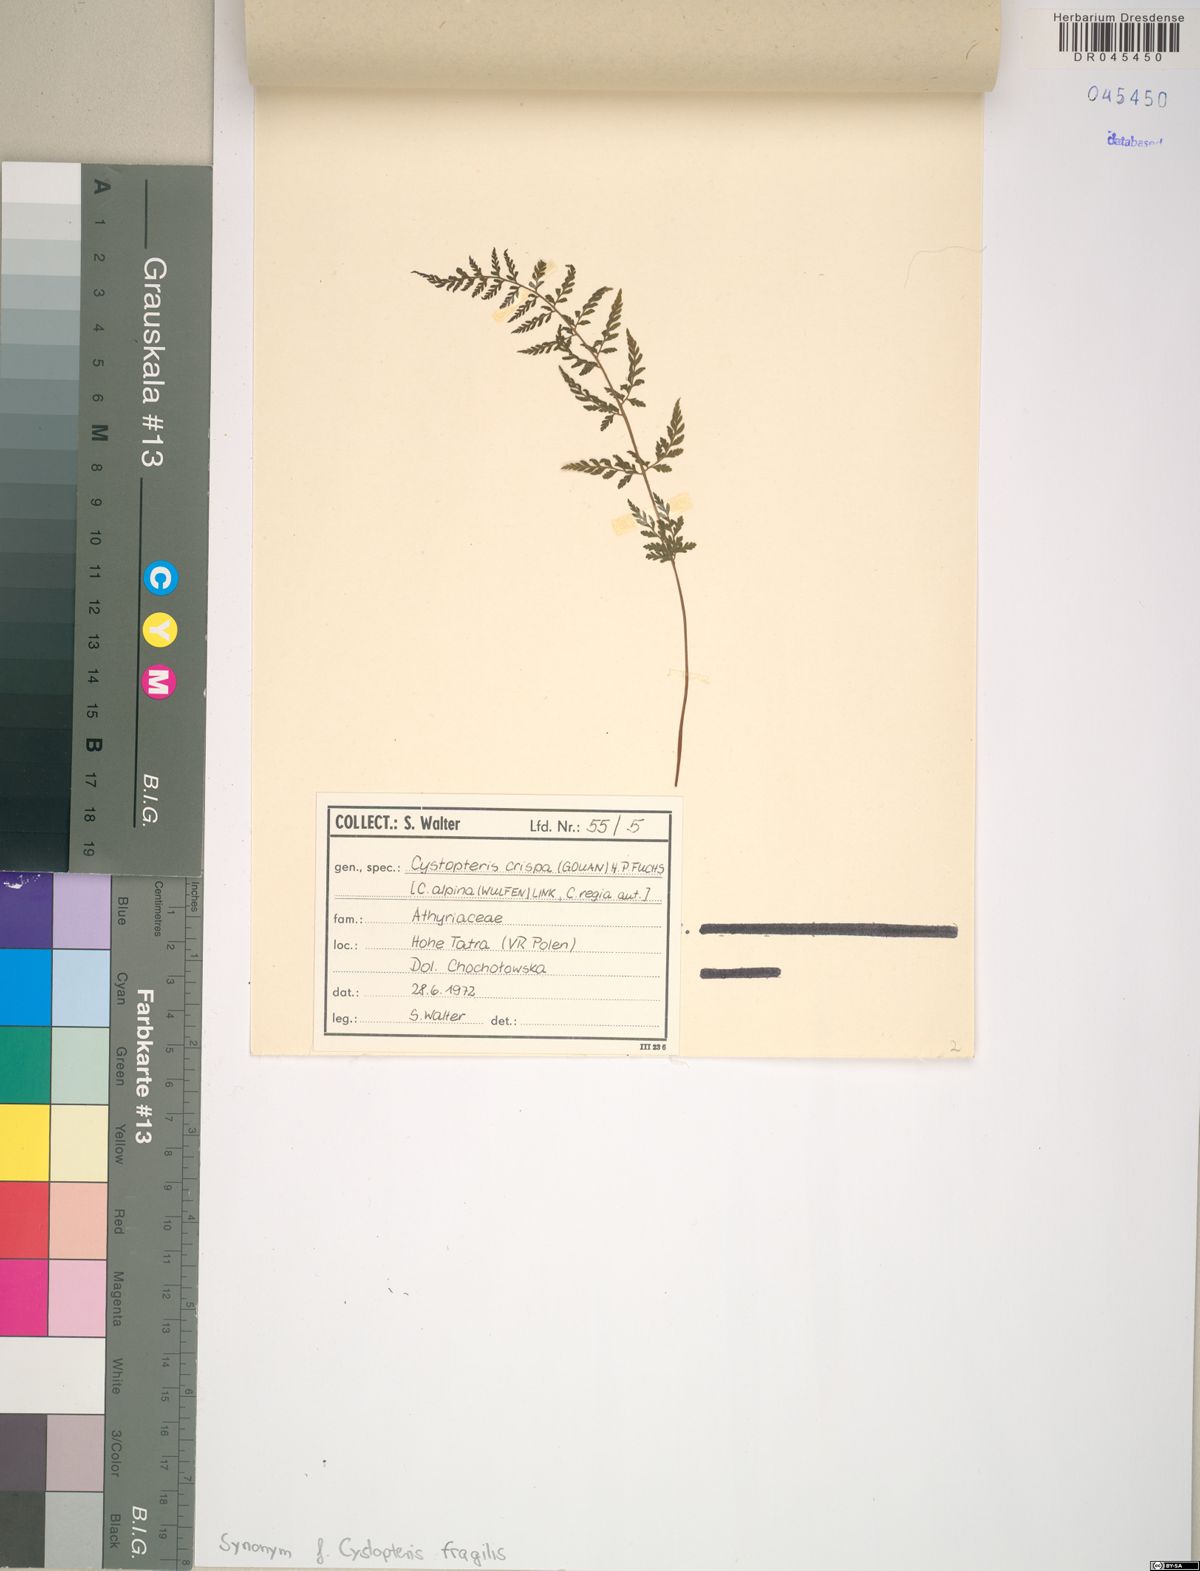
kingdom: Plantae
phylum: Tracheophyta
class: Polypodiopsida
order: Polypodiales
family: Cystopteridaceae
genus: Cystopteris
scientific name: Cystopteris fragilis
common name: Brittle bladder fern
